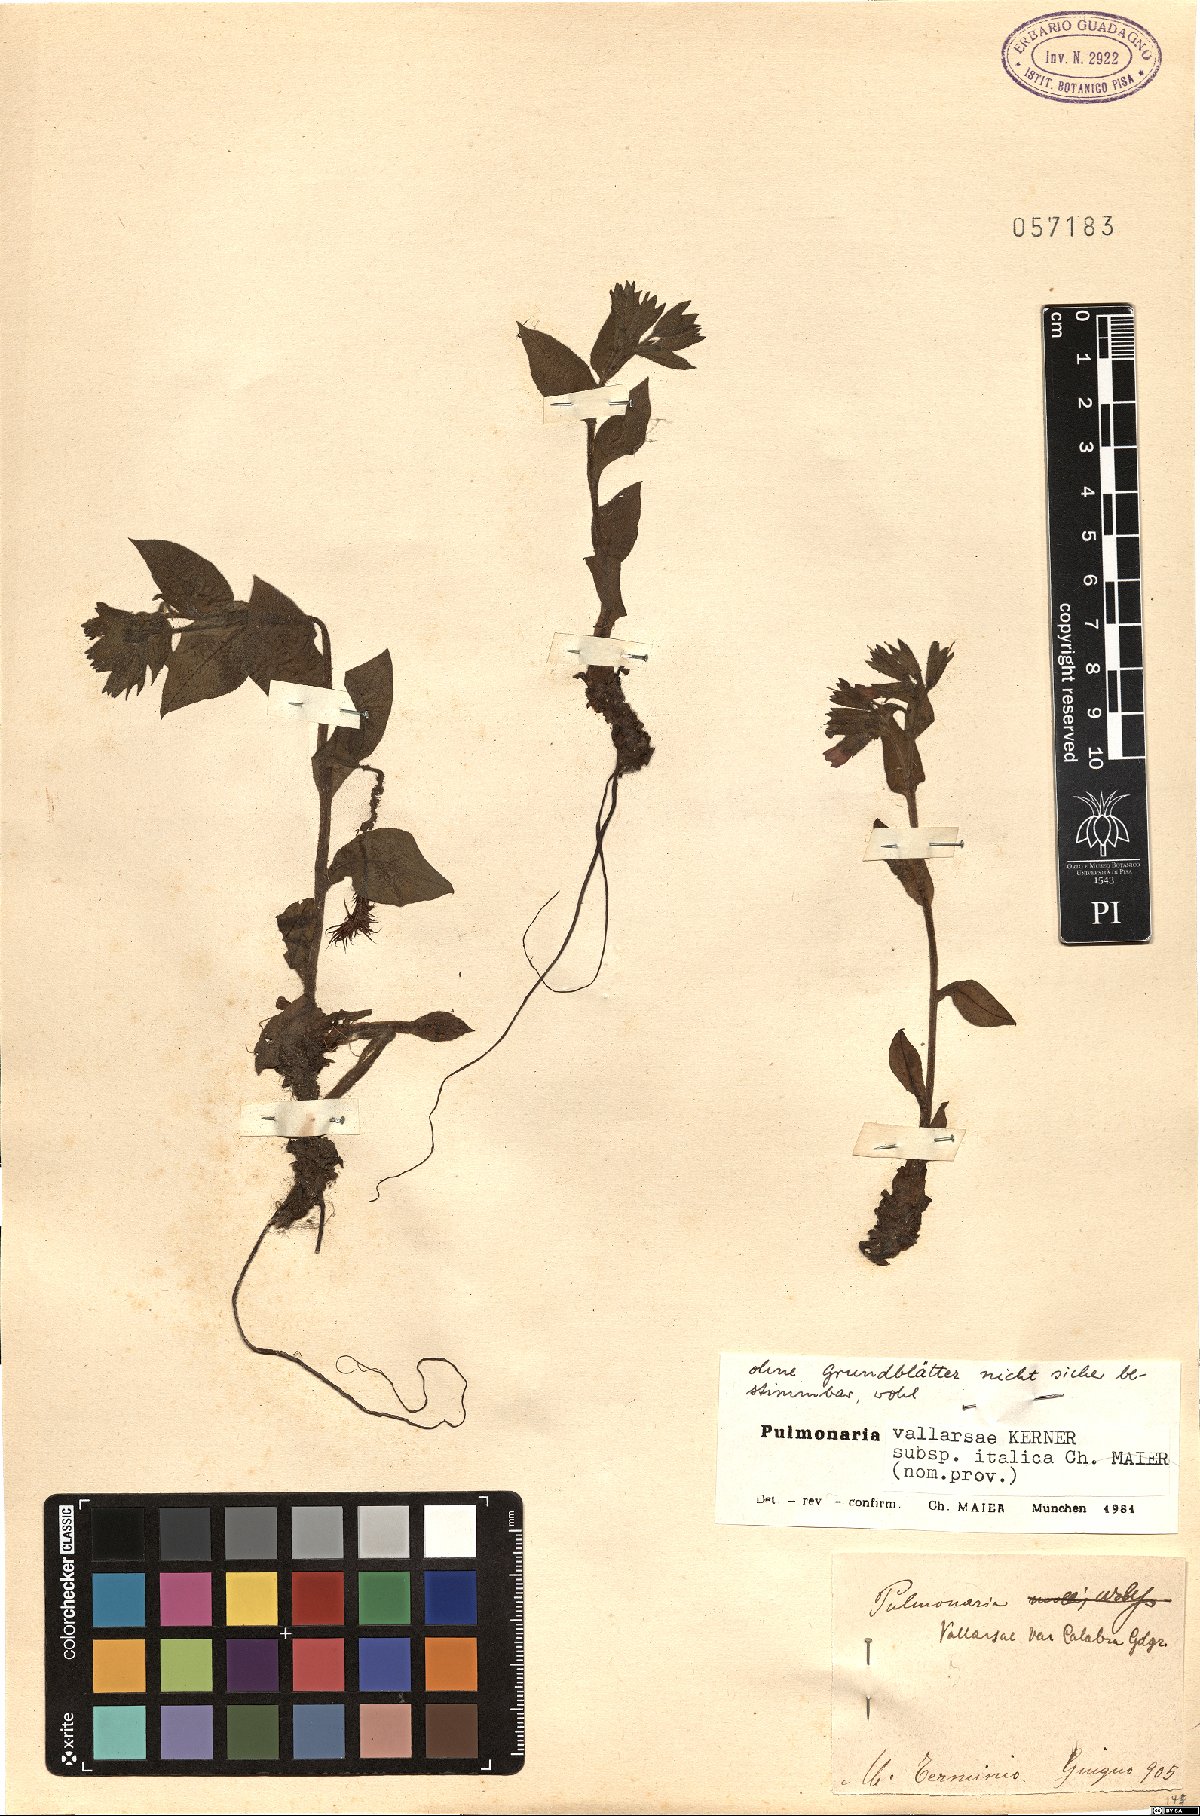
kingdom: Plantae
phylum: Tracheophyta
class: Magnoliopsida
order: Boraginales
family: Boraginaceae
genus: Pulmonaria
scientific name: Pulmonaria hirta
